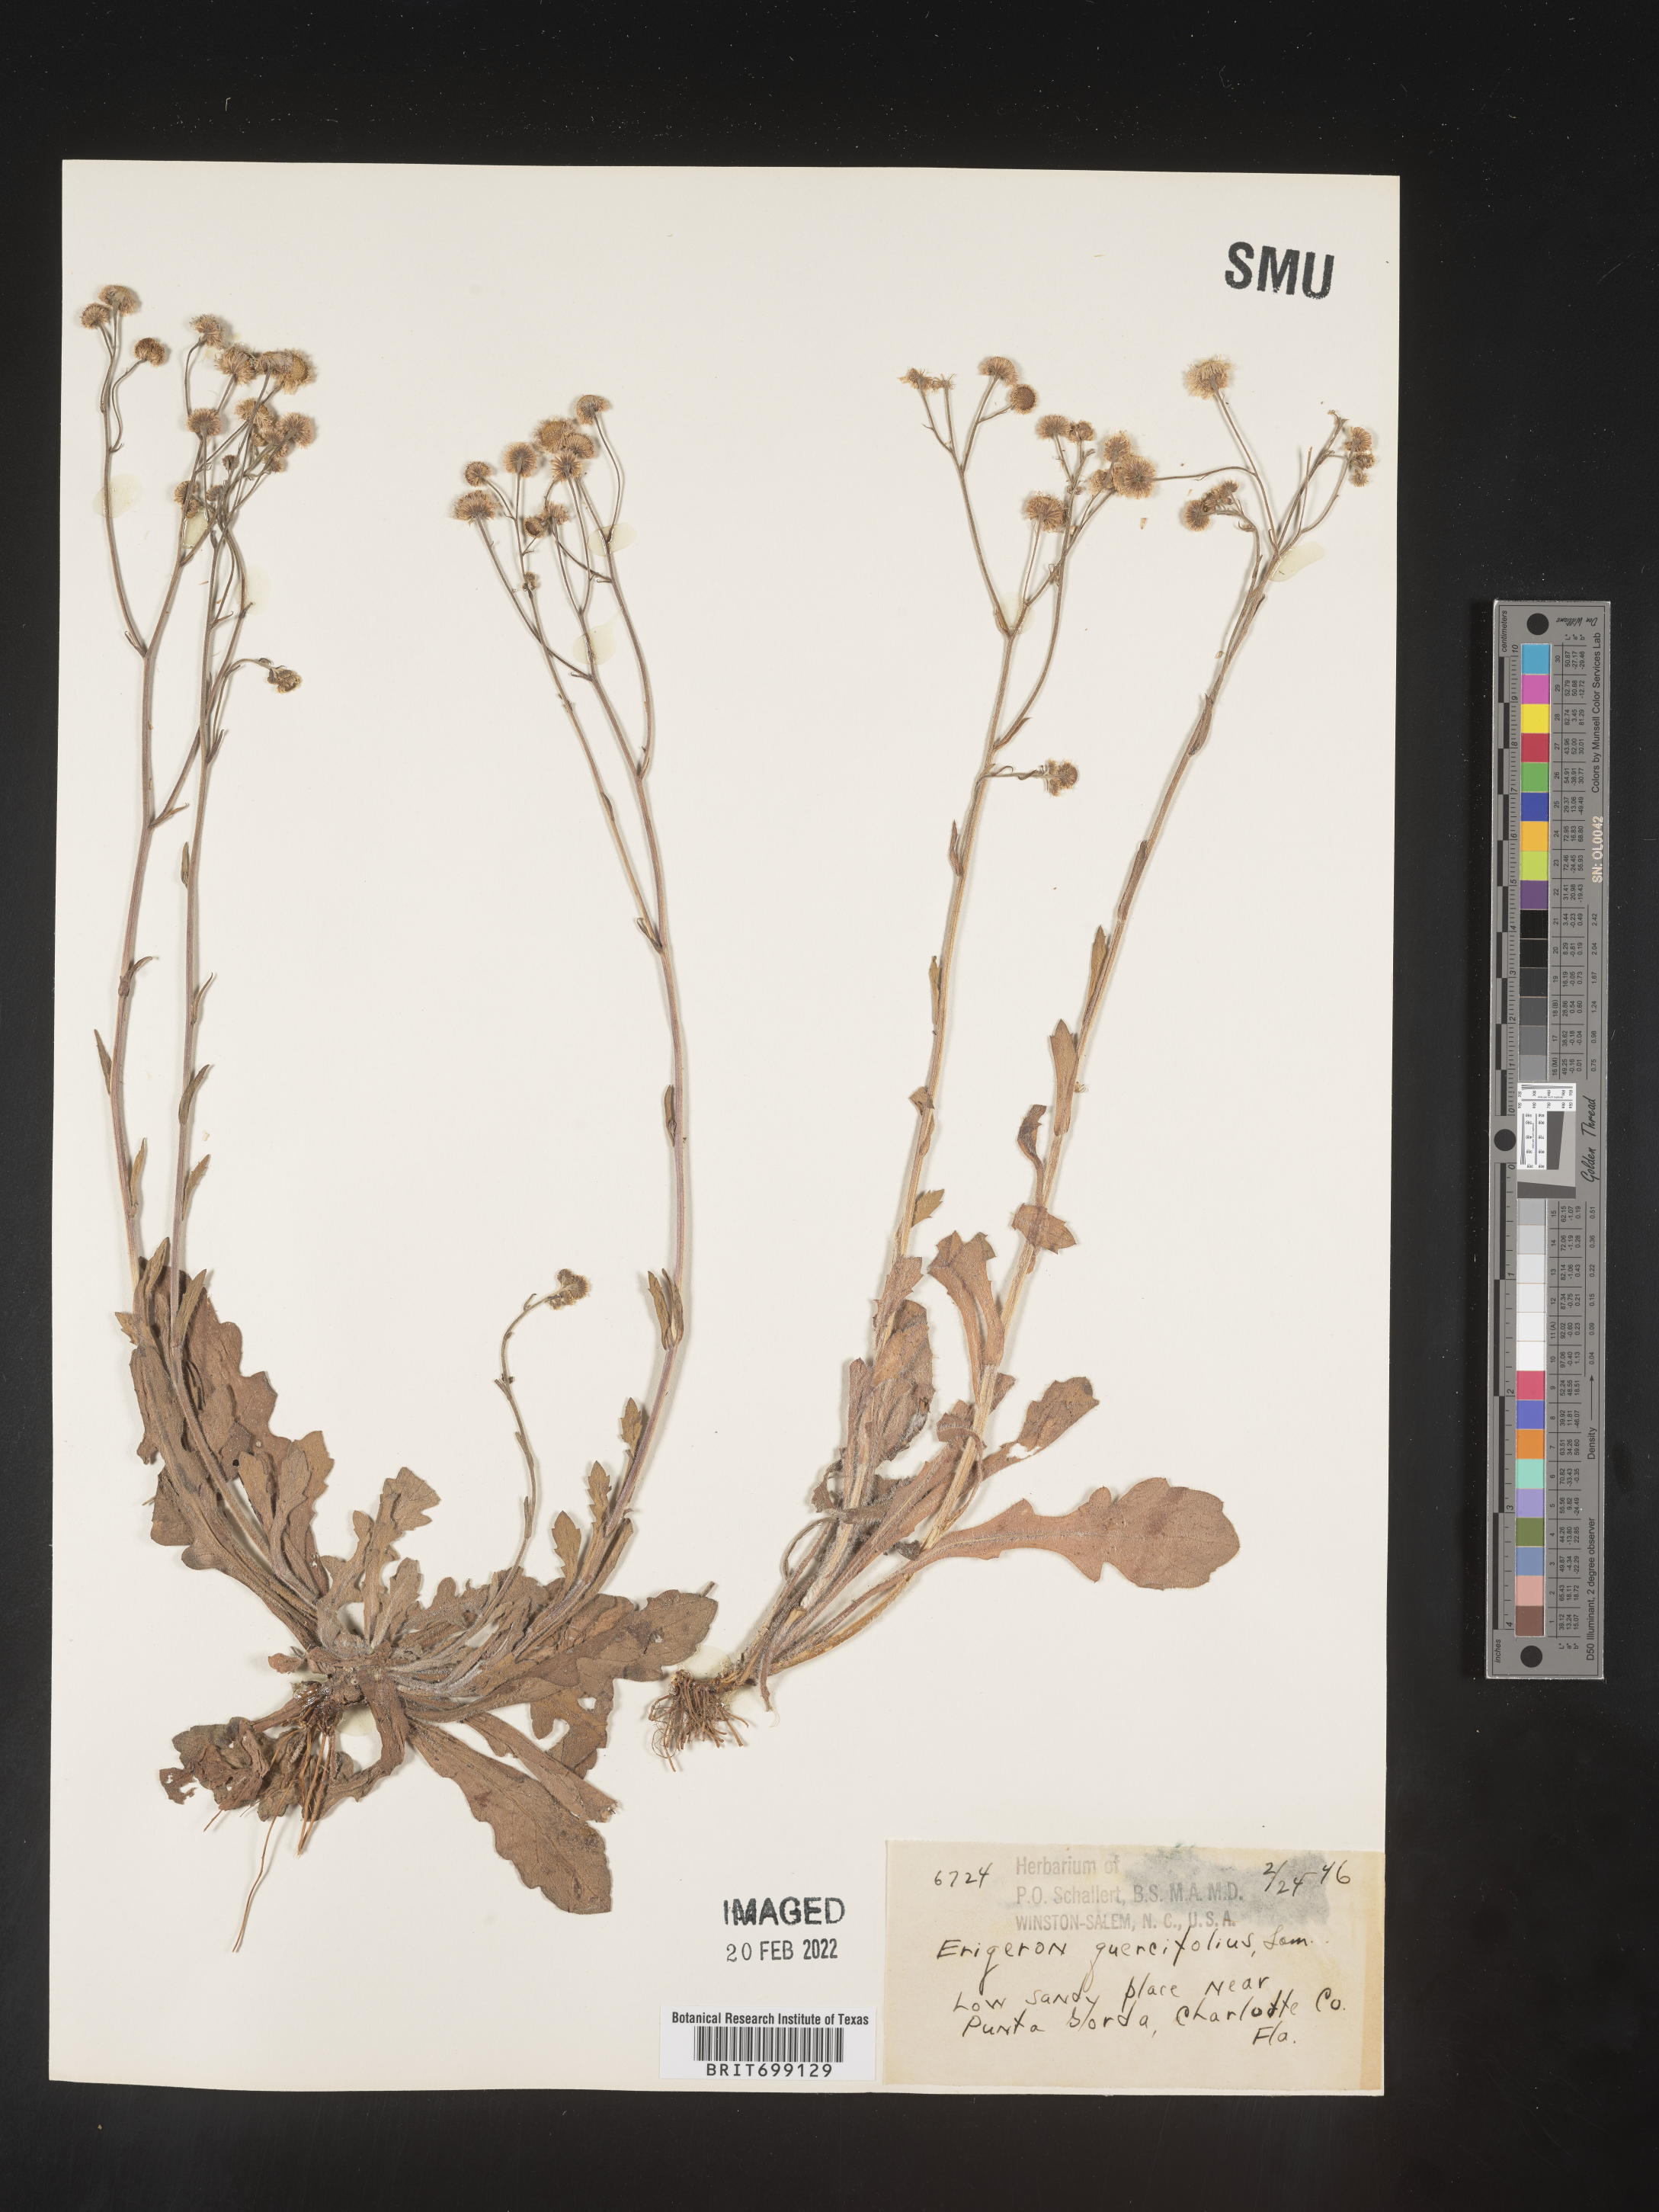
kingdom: Plantae
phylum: Tracheophyta
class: Magnoliopsida
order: Asterales
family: Asteraceae
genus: Erigeron
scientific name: Erigeron quercifolius
